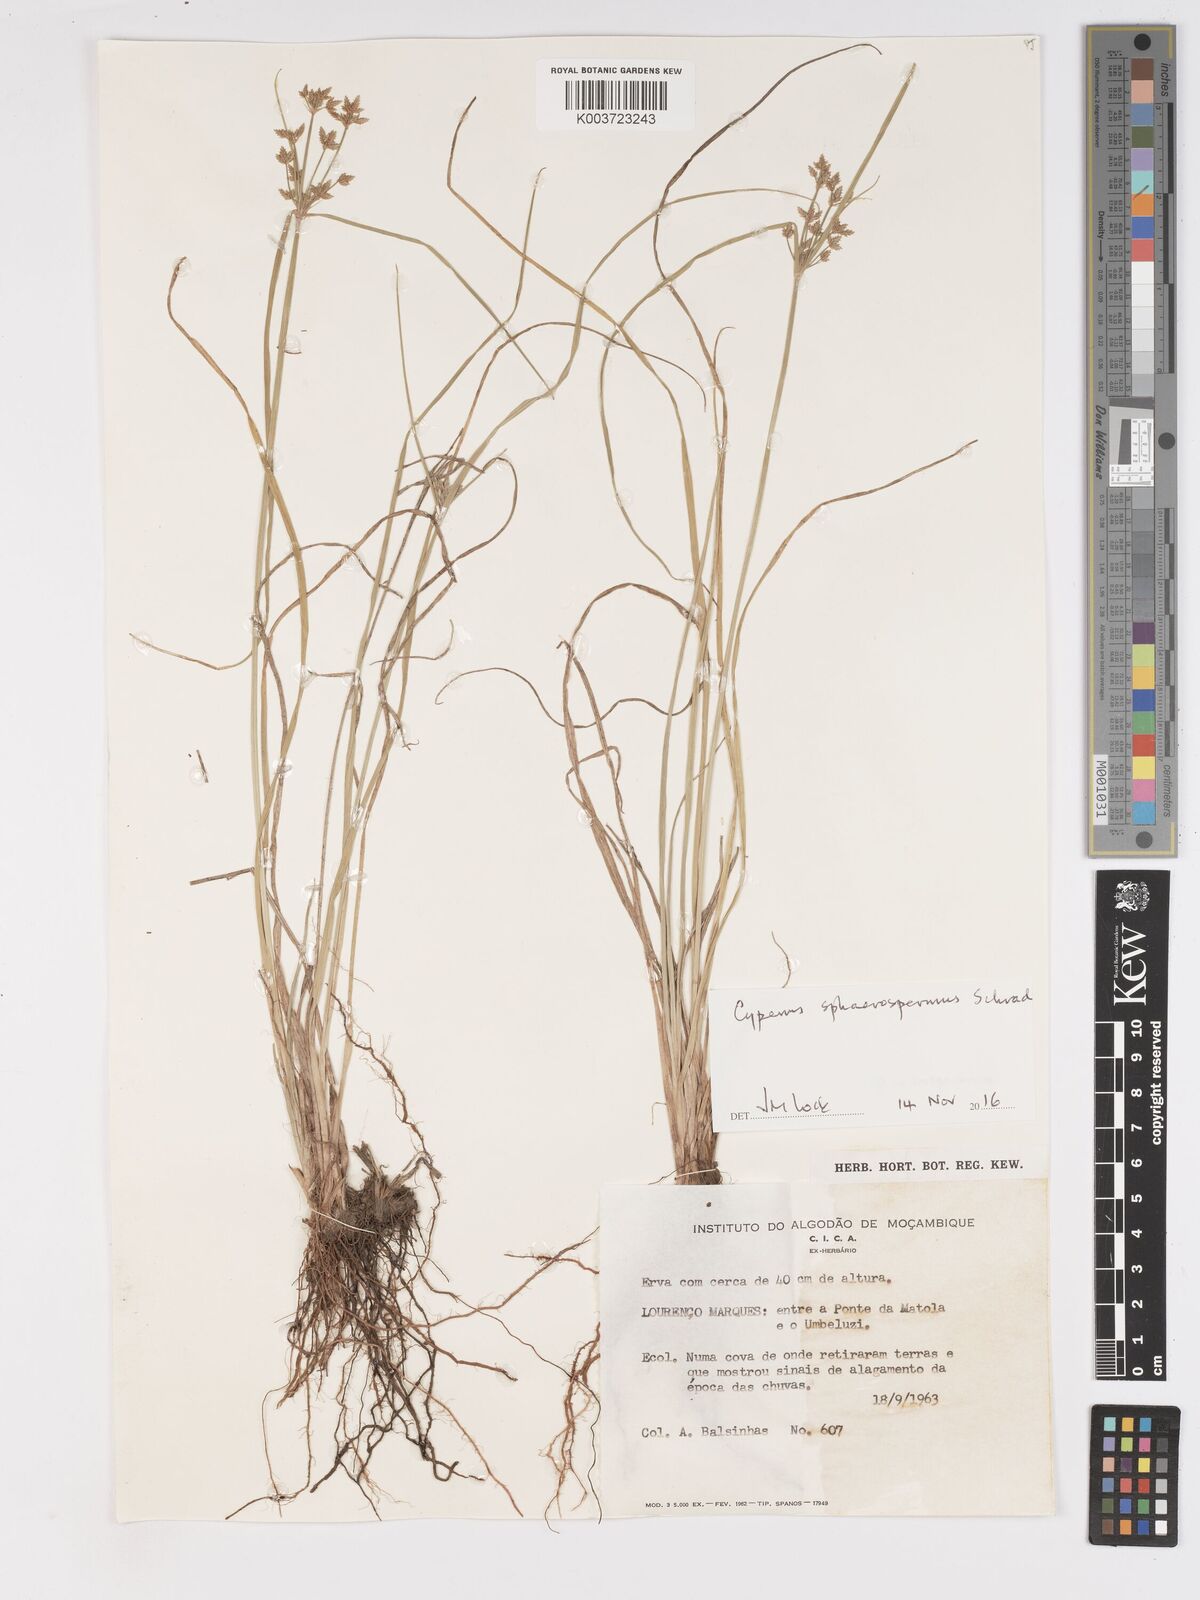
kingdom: Plantae
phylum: Tracheophyta
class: Liliopsida
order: Poales
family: Cyperaceae
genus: Cyperus
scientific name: Cyperus denudatus
